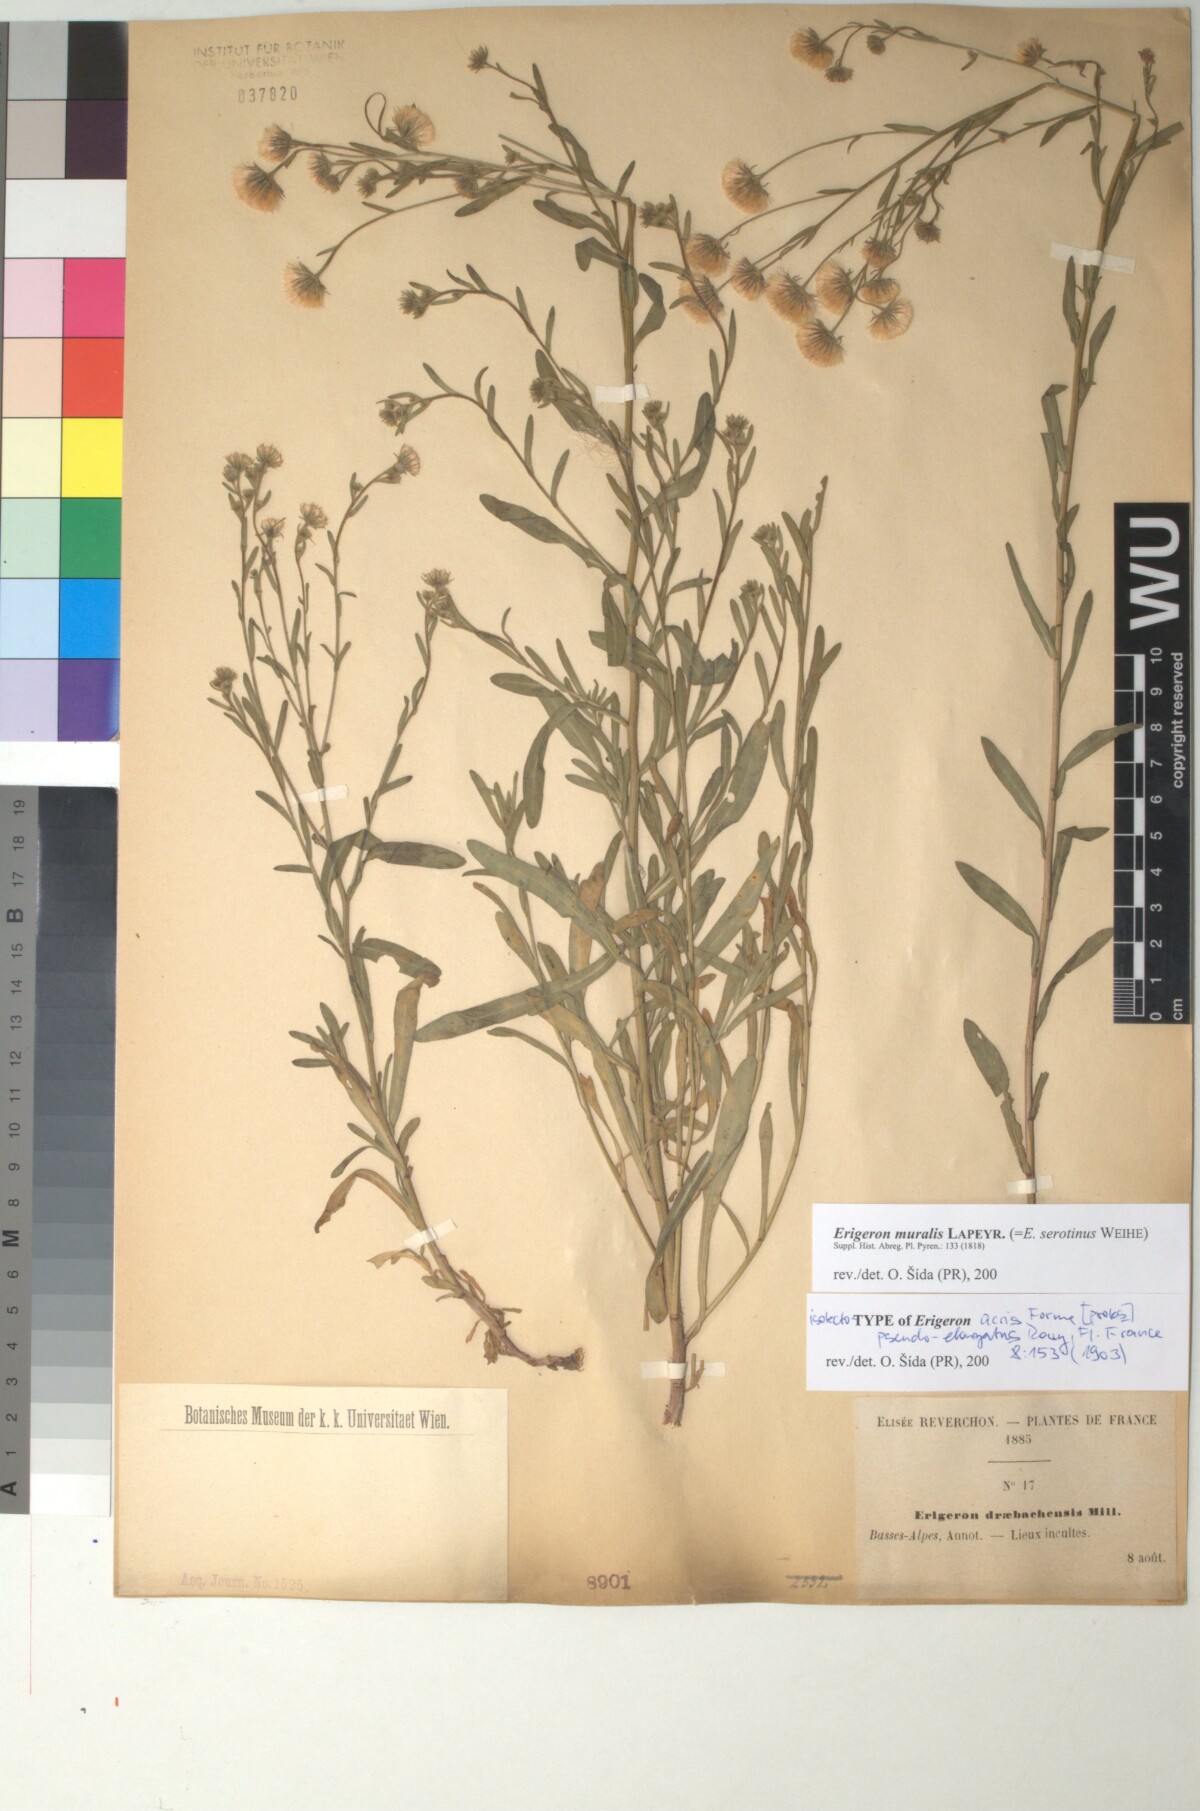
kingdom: Plantae
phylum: Tracheophyta
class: Magnoliopsida
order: Asterales
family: Asteraceae
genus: Erigeron
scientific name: Erigeron acris
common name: Blue fleabane
